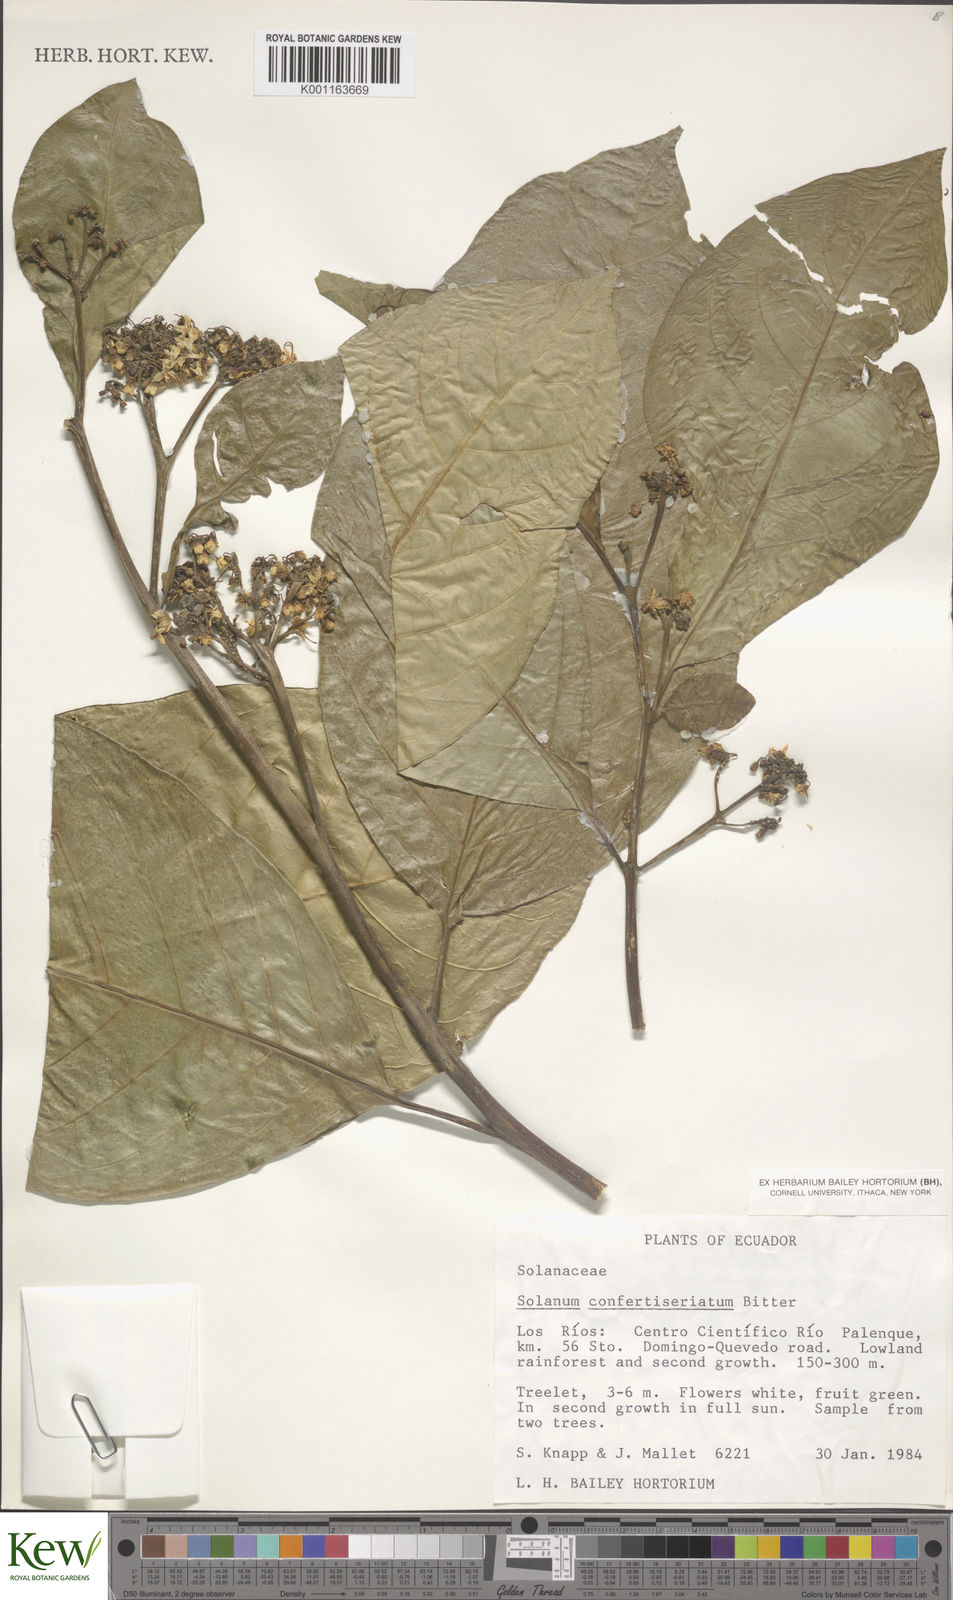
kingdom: Plantae
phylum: Tracheophyta
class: Magnoliopsida
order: Solanales
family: Solanaceae
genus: Solanum
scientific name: Solanum confertiseriatum
